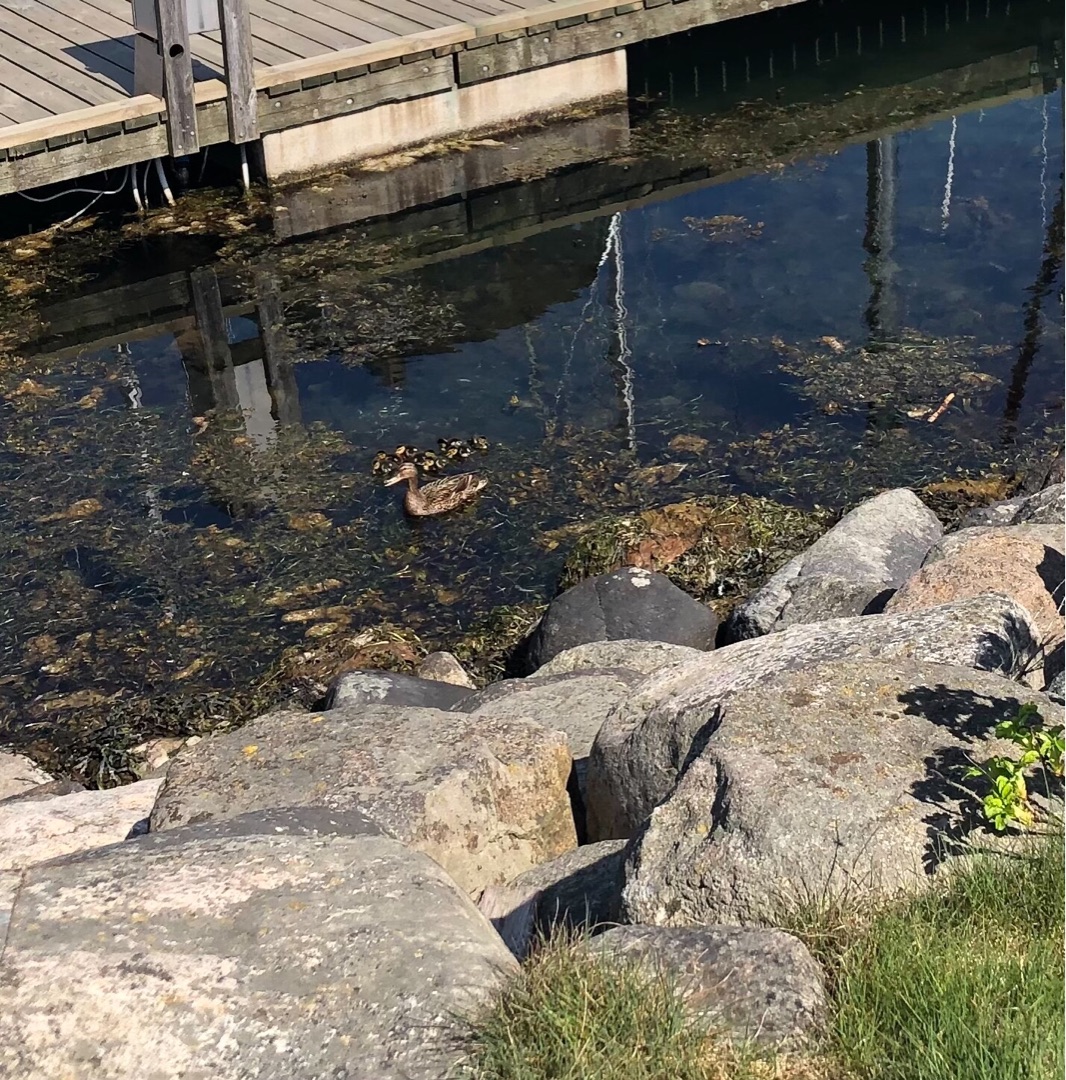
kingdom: Animalia
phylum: Chordata
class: Aves
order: Anseriformes
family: Anatidae
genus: Anas
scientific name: Anas platyrhynchos
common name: Gråand
